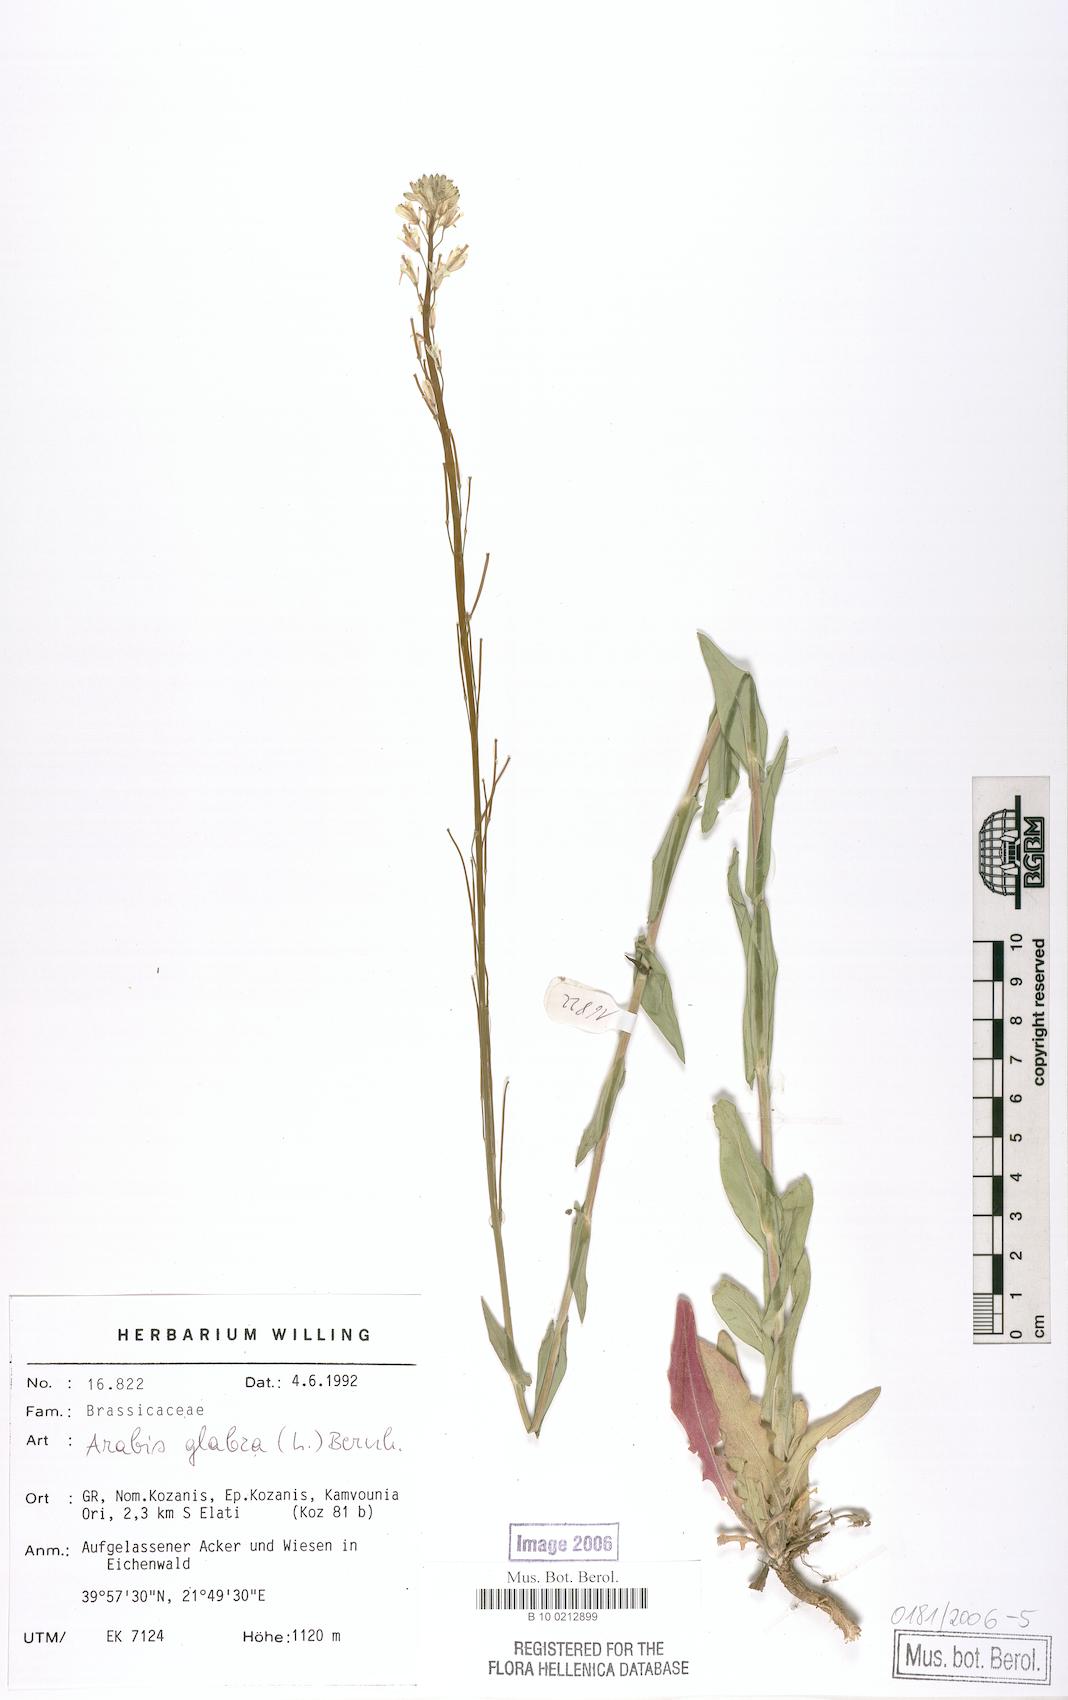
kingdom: Plantae
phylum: Tracheophyta
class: Magnoliopsida
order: Brassicales
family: Brassicaceae
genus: Turritis
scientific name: Turritis glabra
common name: Tower rockcress
